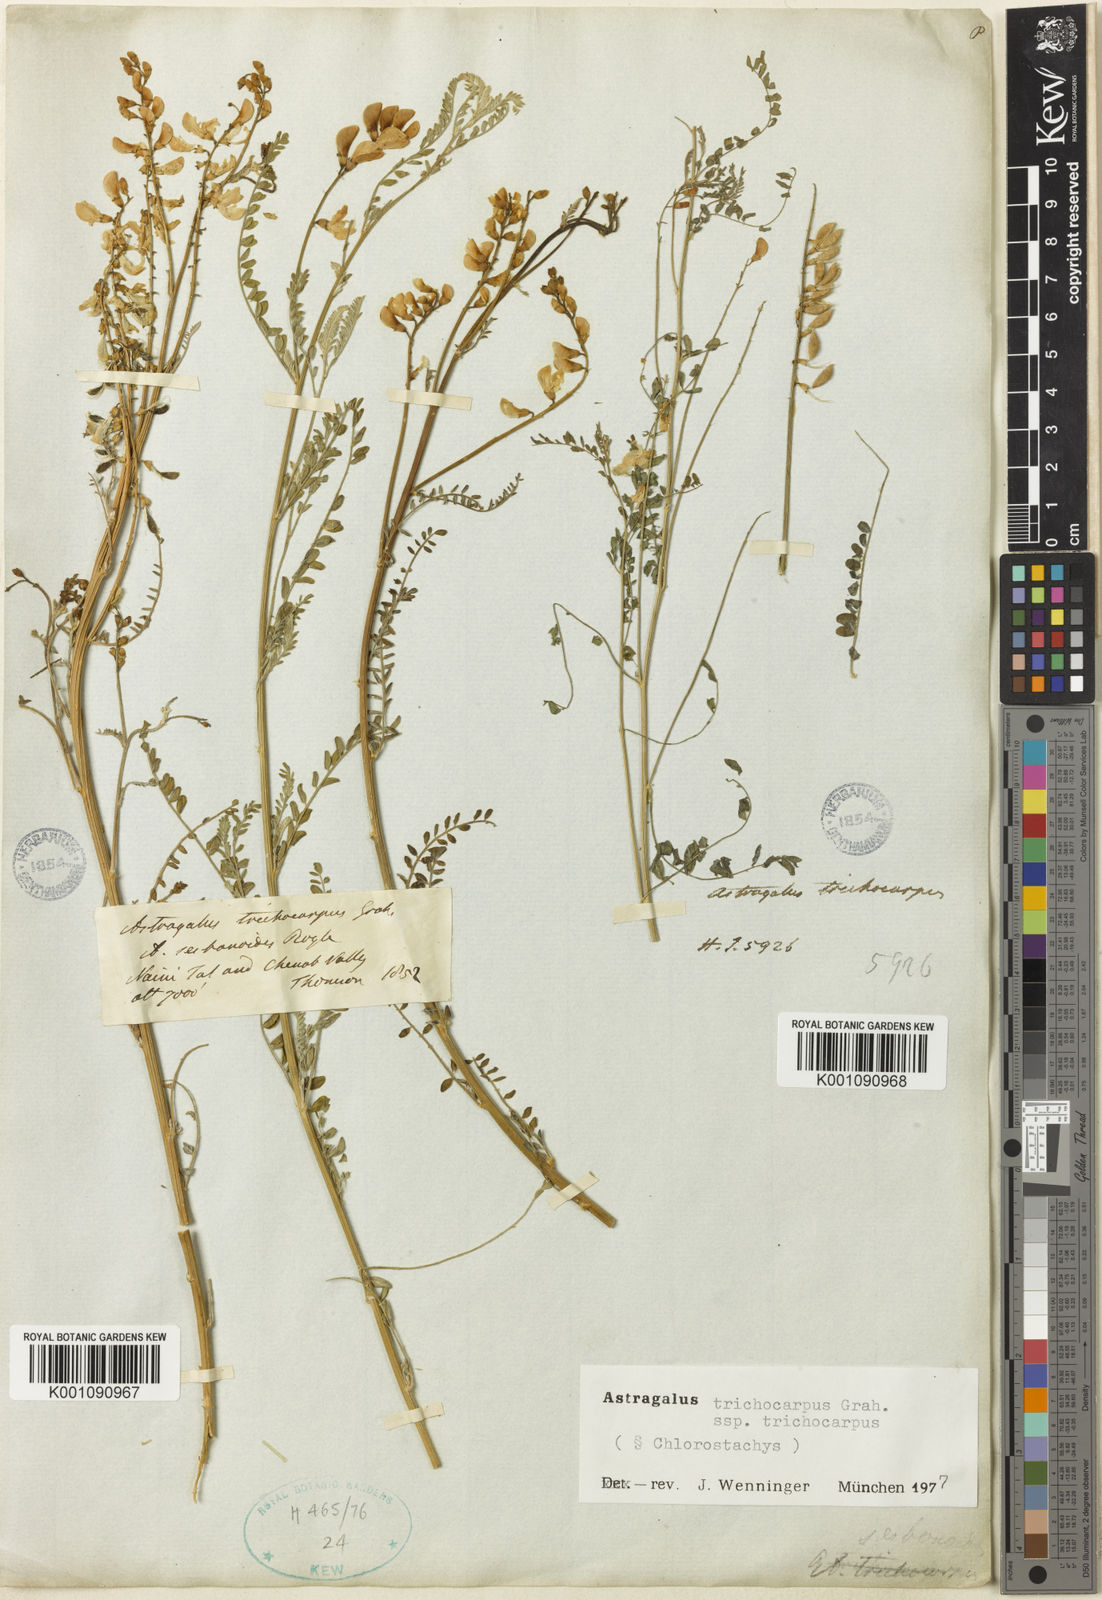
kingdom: Plantae
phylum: Tracheophyta
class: Magnoliopsida
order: Fabales
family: Fabaceae
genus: Astragalus
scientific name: Astragalus
